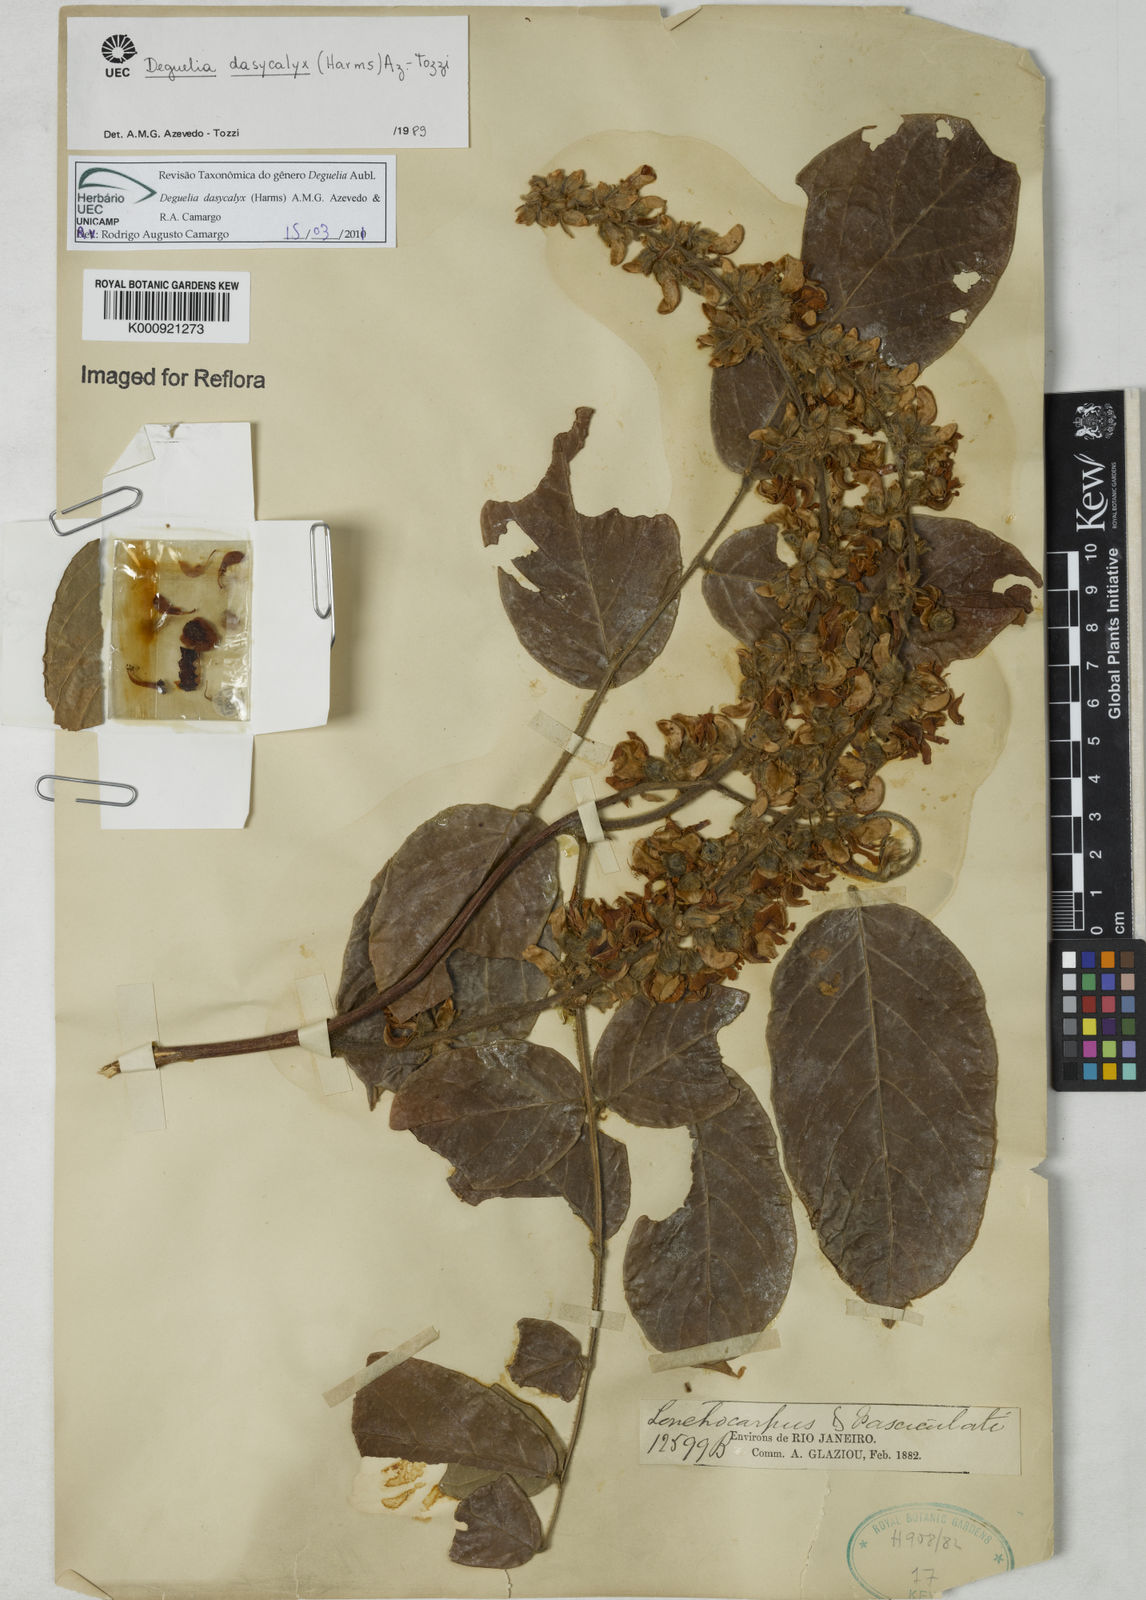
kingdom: Plantae
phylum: Tracheophyta
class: Magnoliopsida
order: Fabales
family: Fabaceae
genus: Deguelia
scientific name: Deguelia dasycalyx
